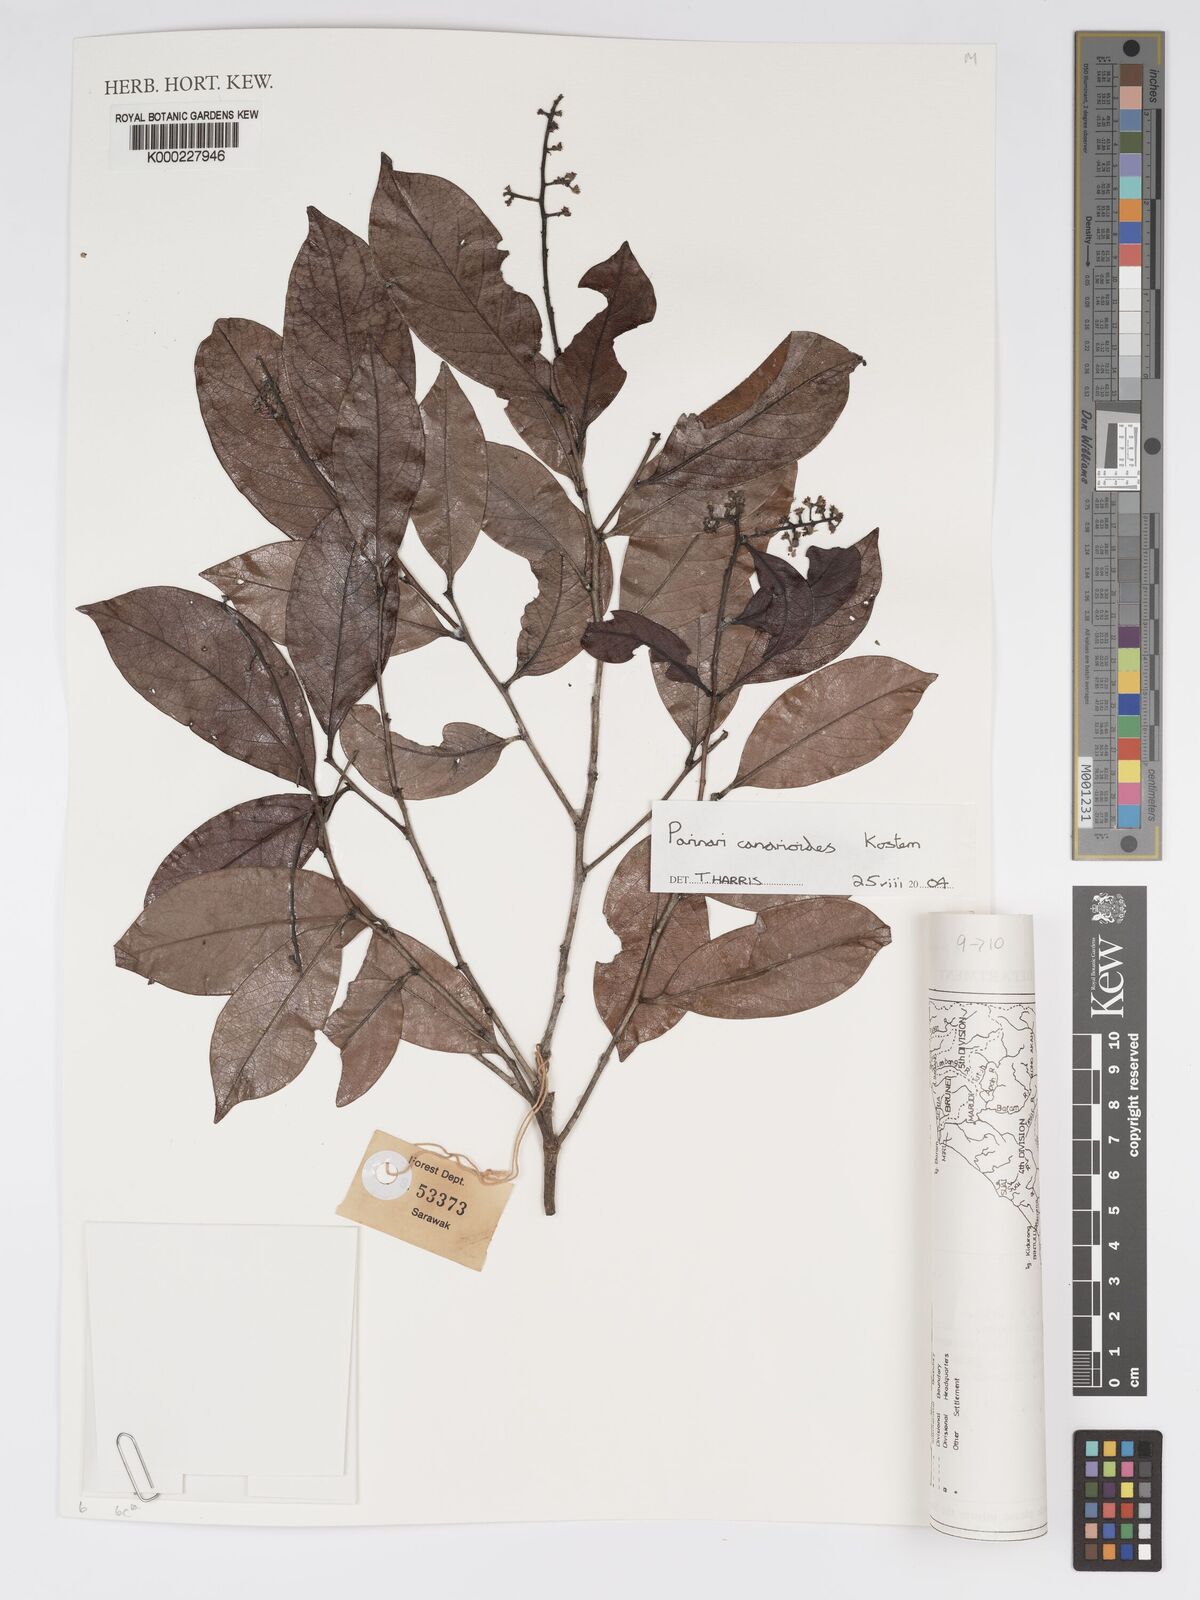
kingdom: Plantae
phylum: Tracheophyta
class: Magnoliopsida
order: Malpighiales
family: Chrysobalanaceae
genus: Parinari
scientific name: Parinari
